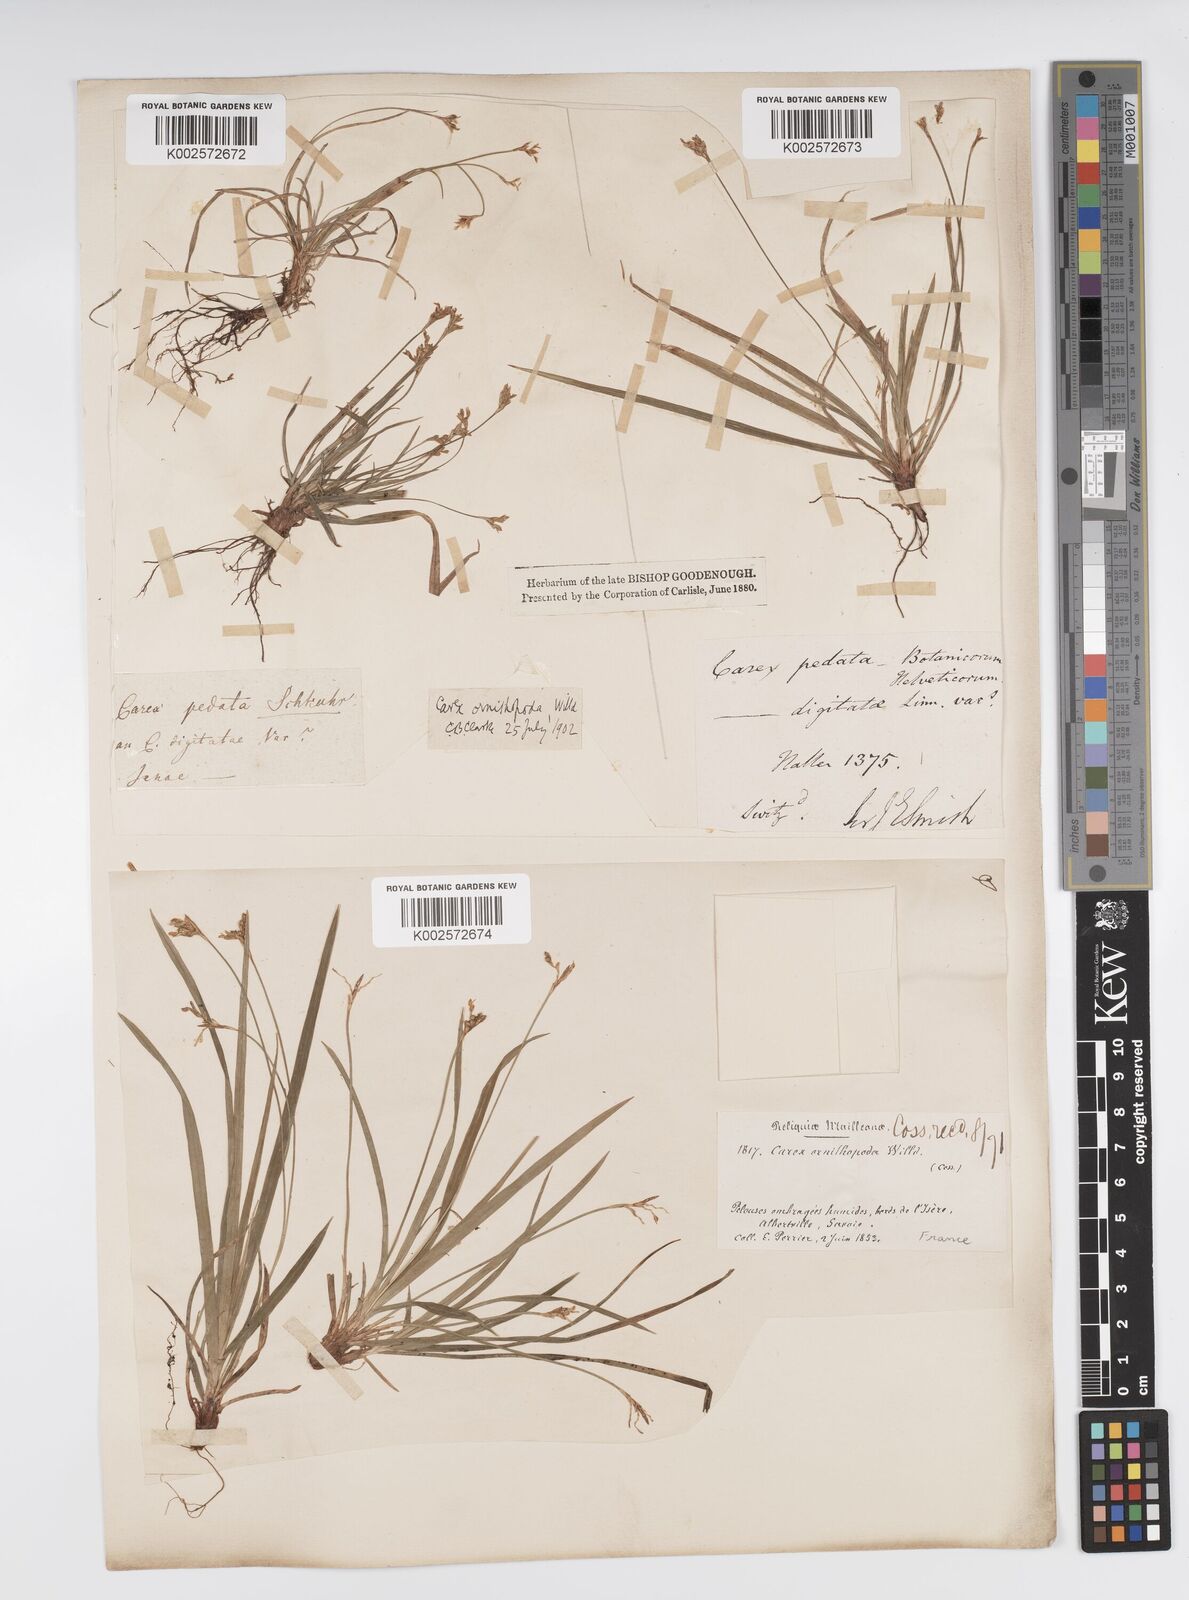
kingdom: Plantae
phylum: Tracheophyta
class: Liliopsida
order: Poales
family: Cyperaceae
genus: Carex
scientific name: Carex ornithopoda
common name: Bird's-foot sedge
